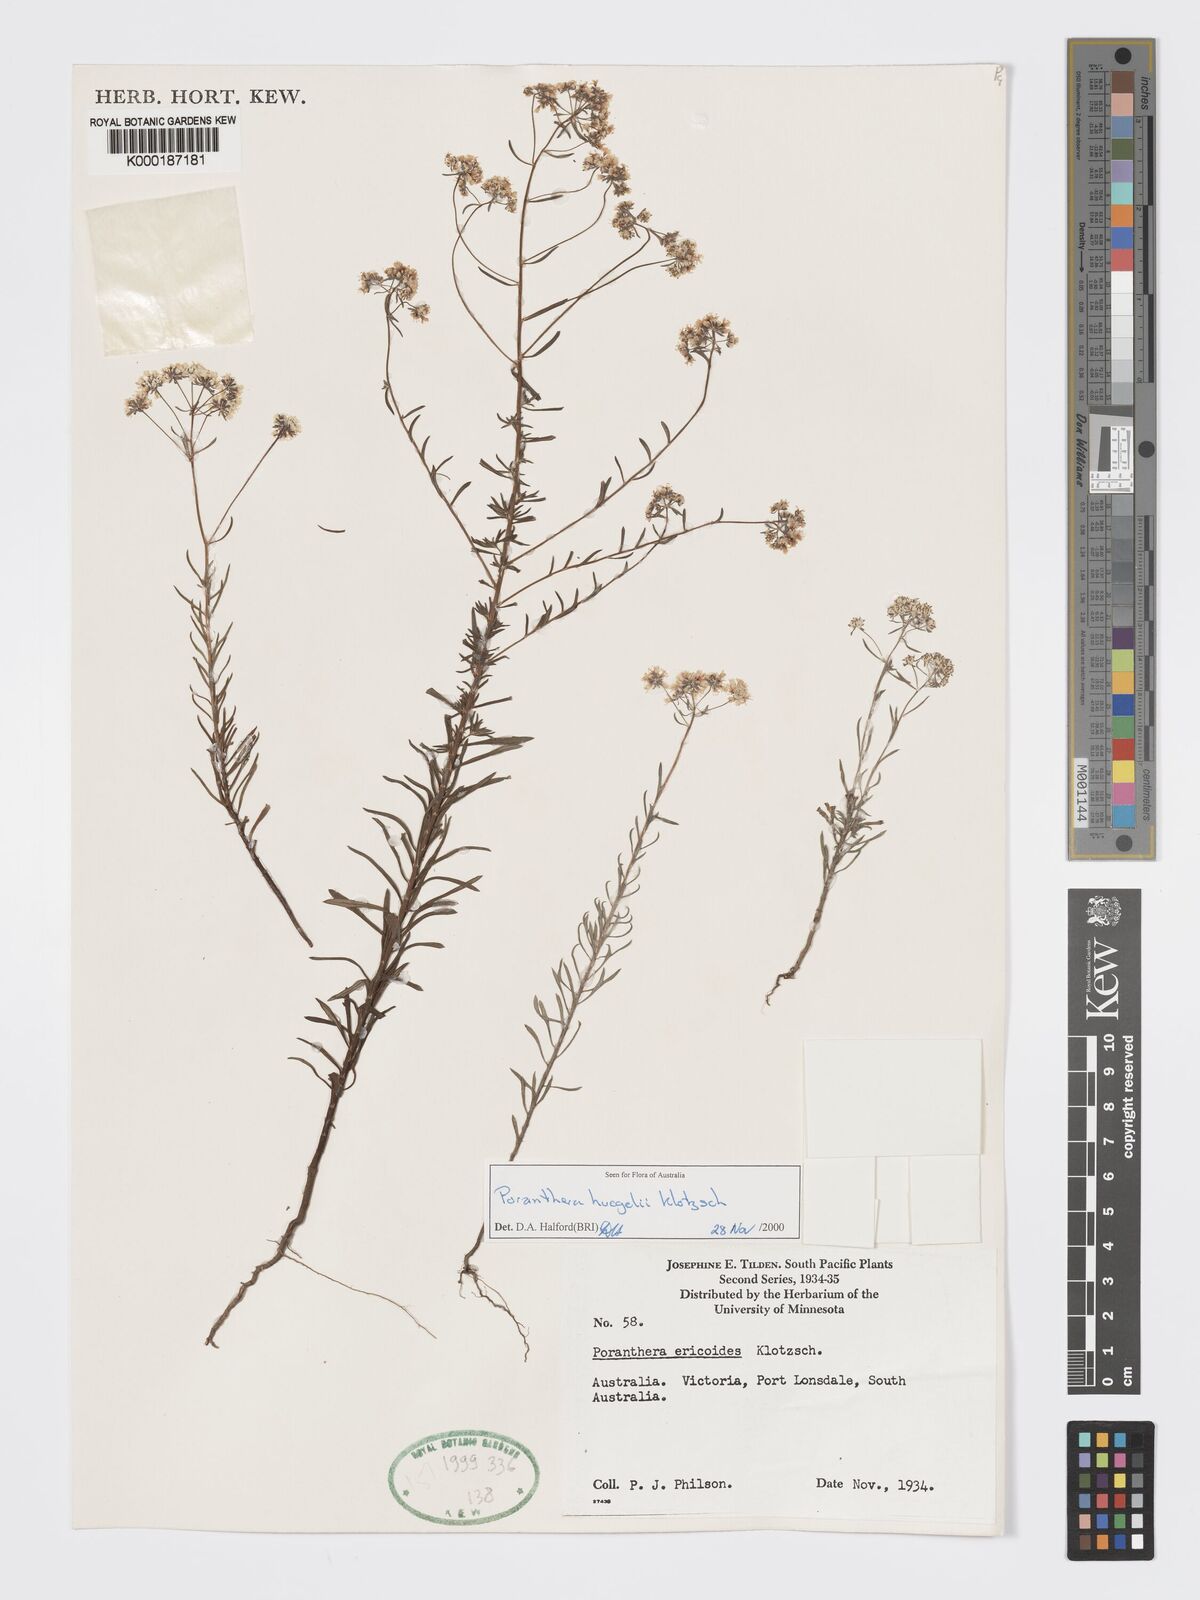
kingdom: Plantae
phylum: Tracheophyta
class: Magnoliopsida
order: Malpighiales
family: Phyllanthaceae
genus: Poranthera
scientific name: Poranthera huegelii
